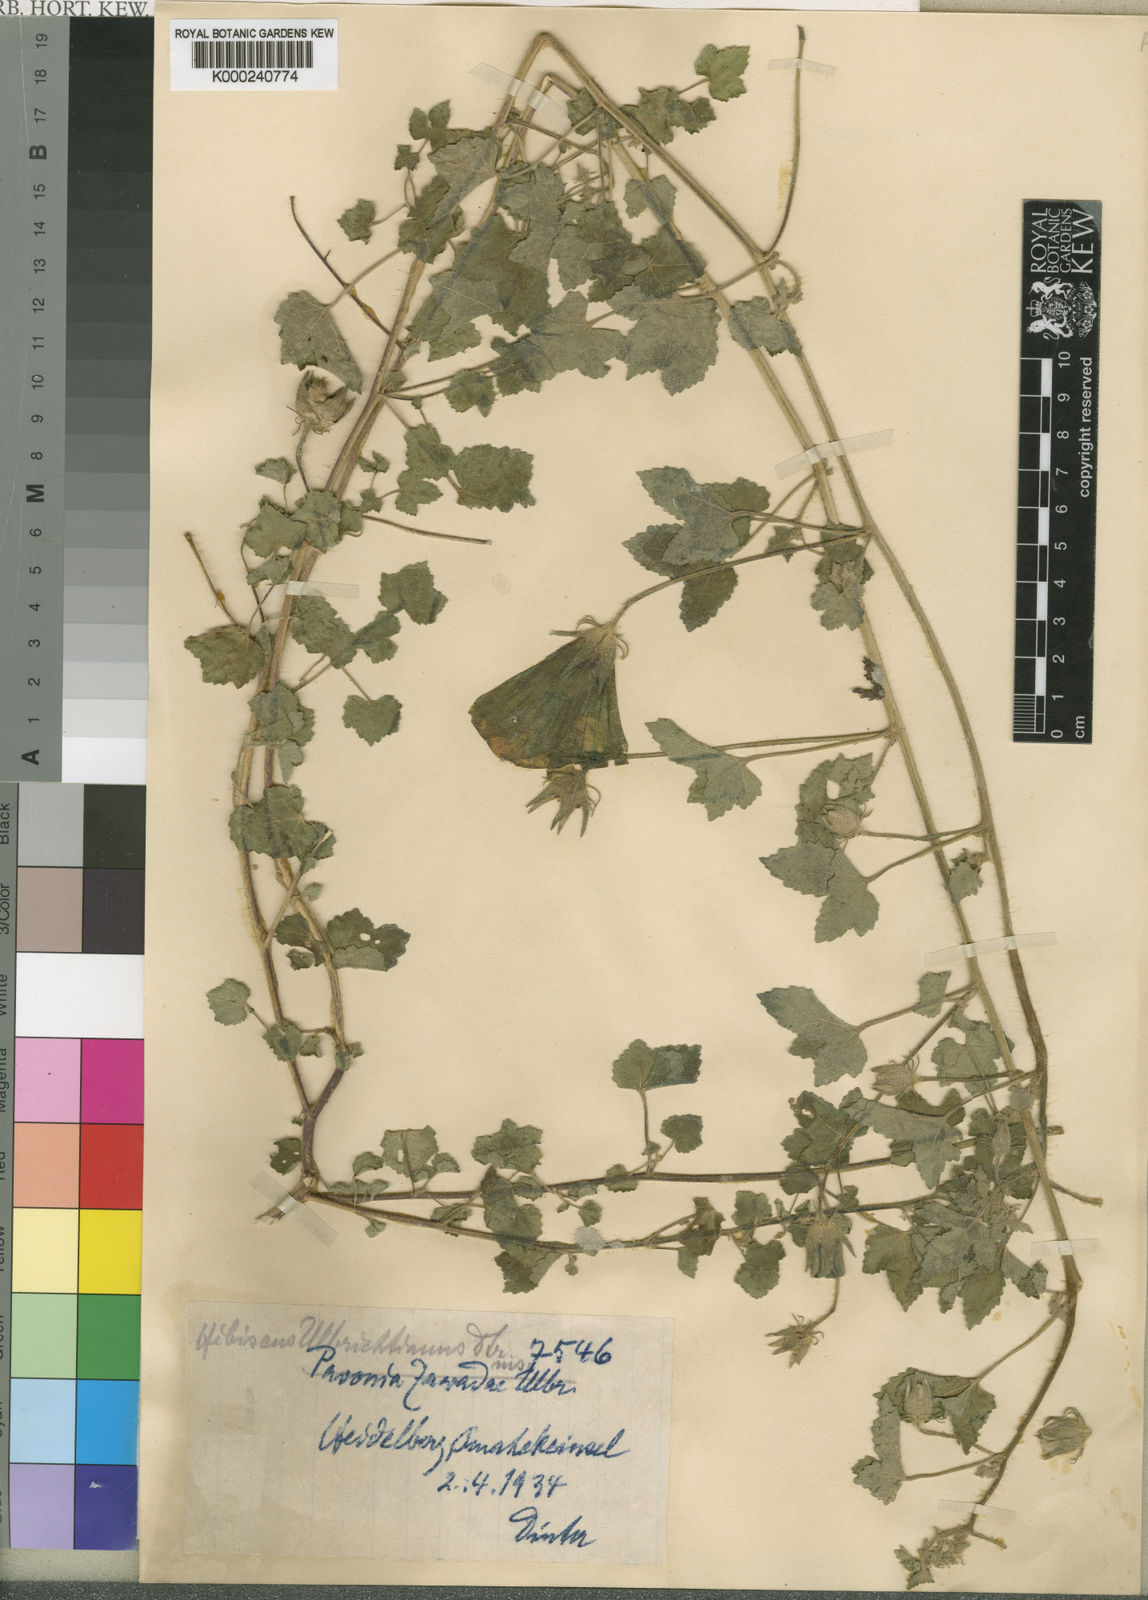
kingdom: Plantae
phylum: Tracheophyta
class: Magnoliopsida
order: Malvales
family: Malvaceae
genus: Hibiscus
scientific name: Hibiscus
